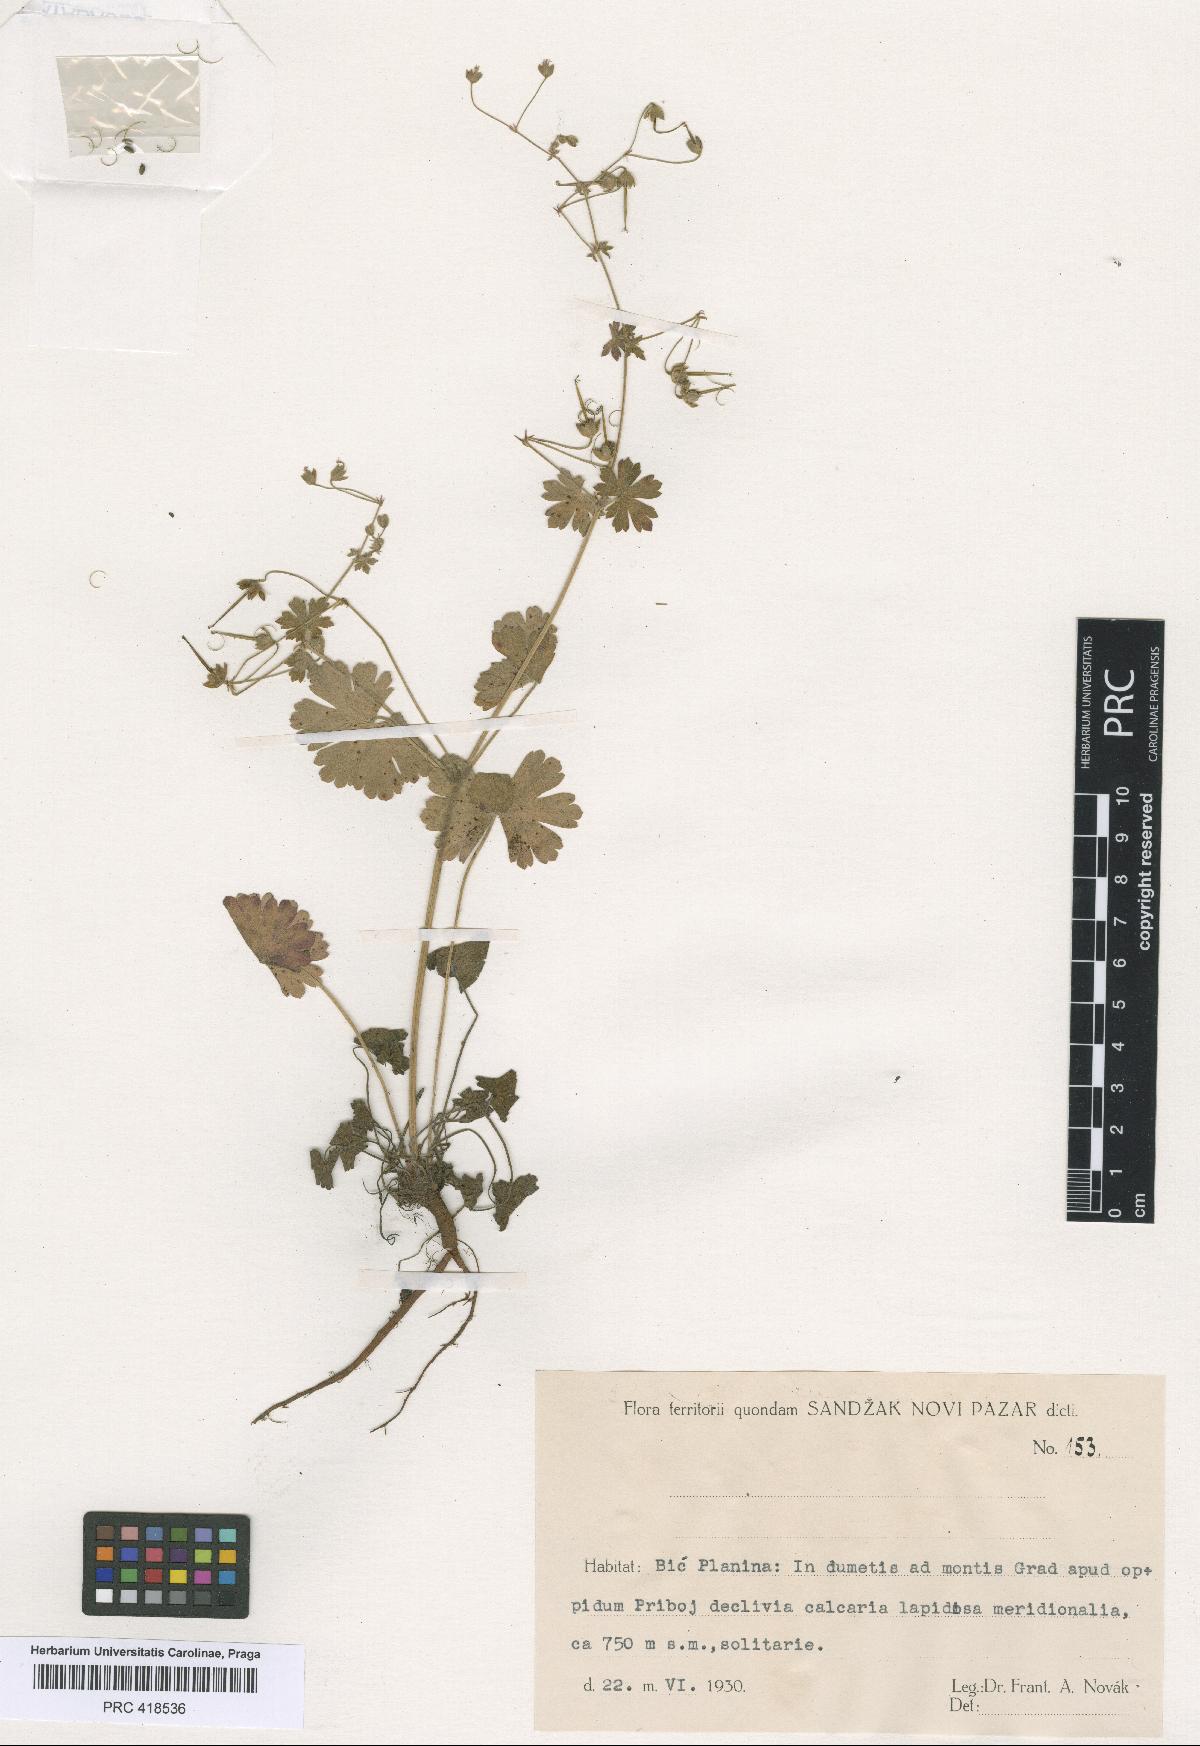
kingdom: Plantae
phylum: Tracheophyta
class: Magnoliopsida
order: Geraniales
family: Geraniaceae
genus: Geranium
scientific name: Geranium pyrenaicum
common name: Hedgerow crane's-bill
